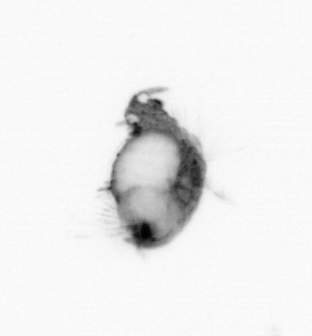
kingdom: Animalia
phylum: Annelida
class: Polychaeta
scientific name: Polychaeta
